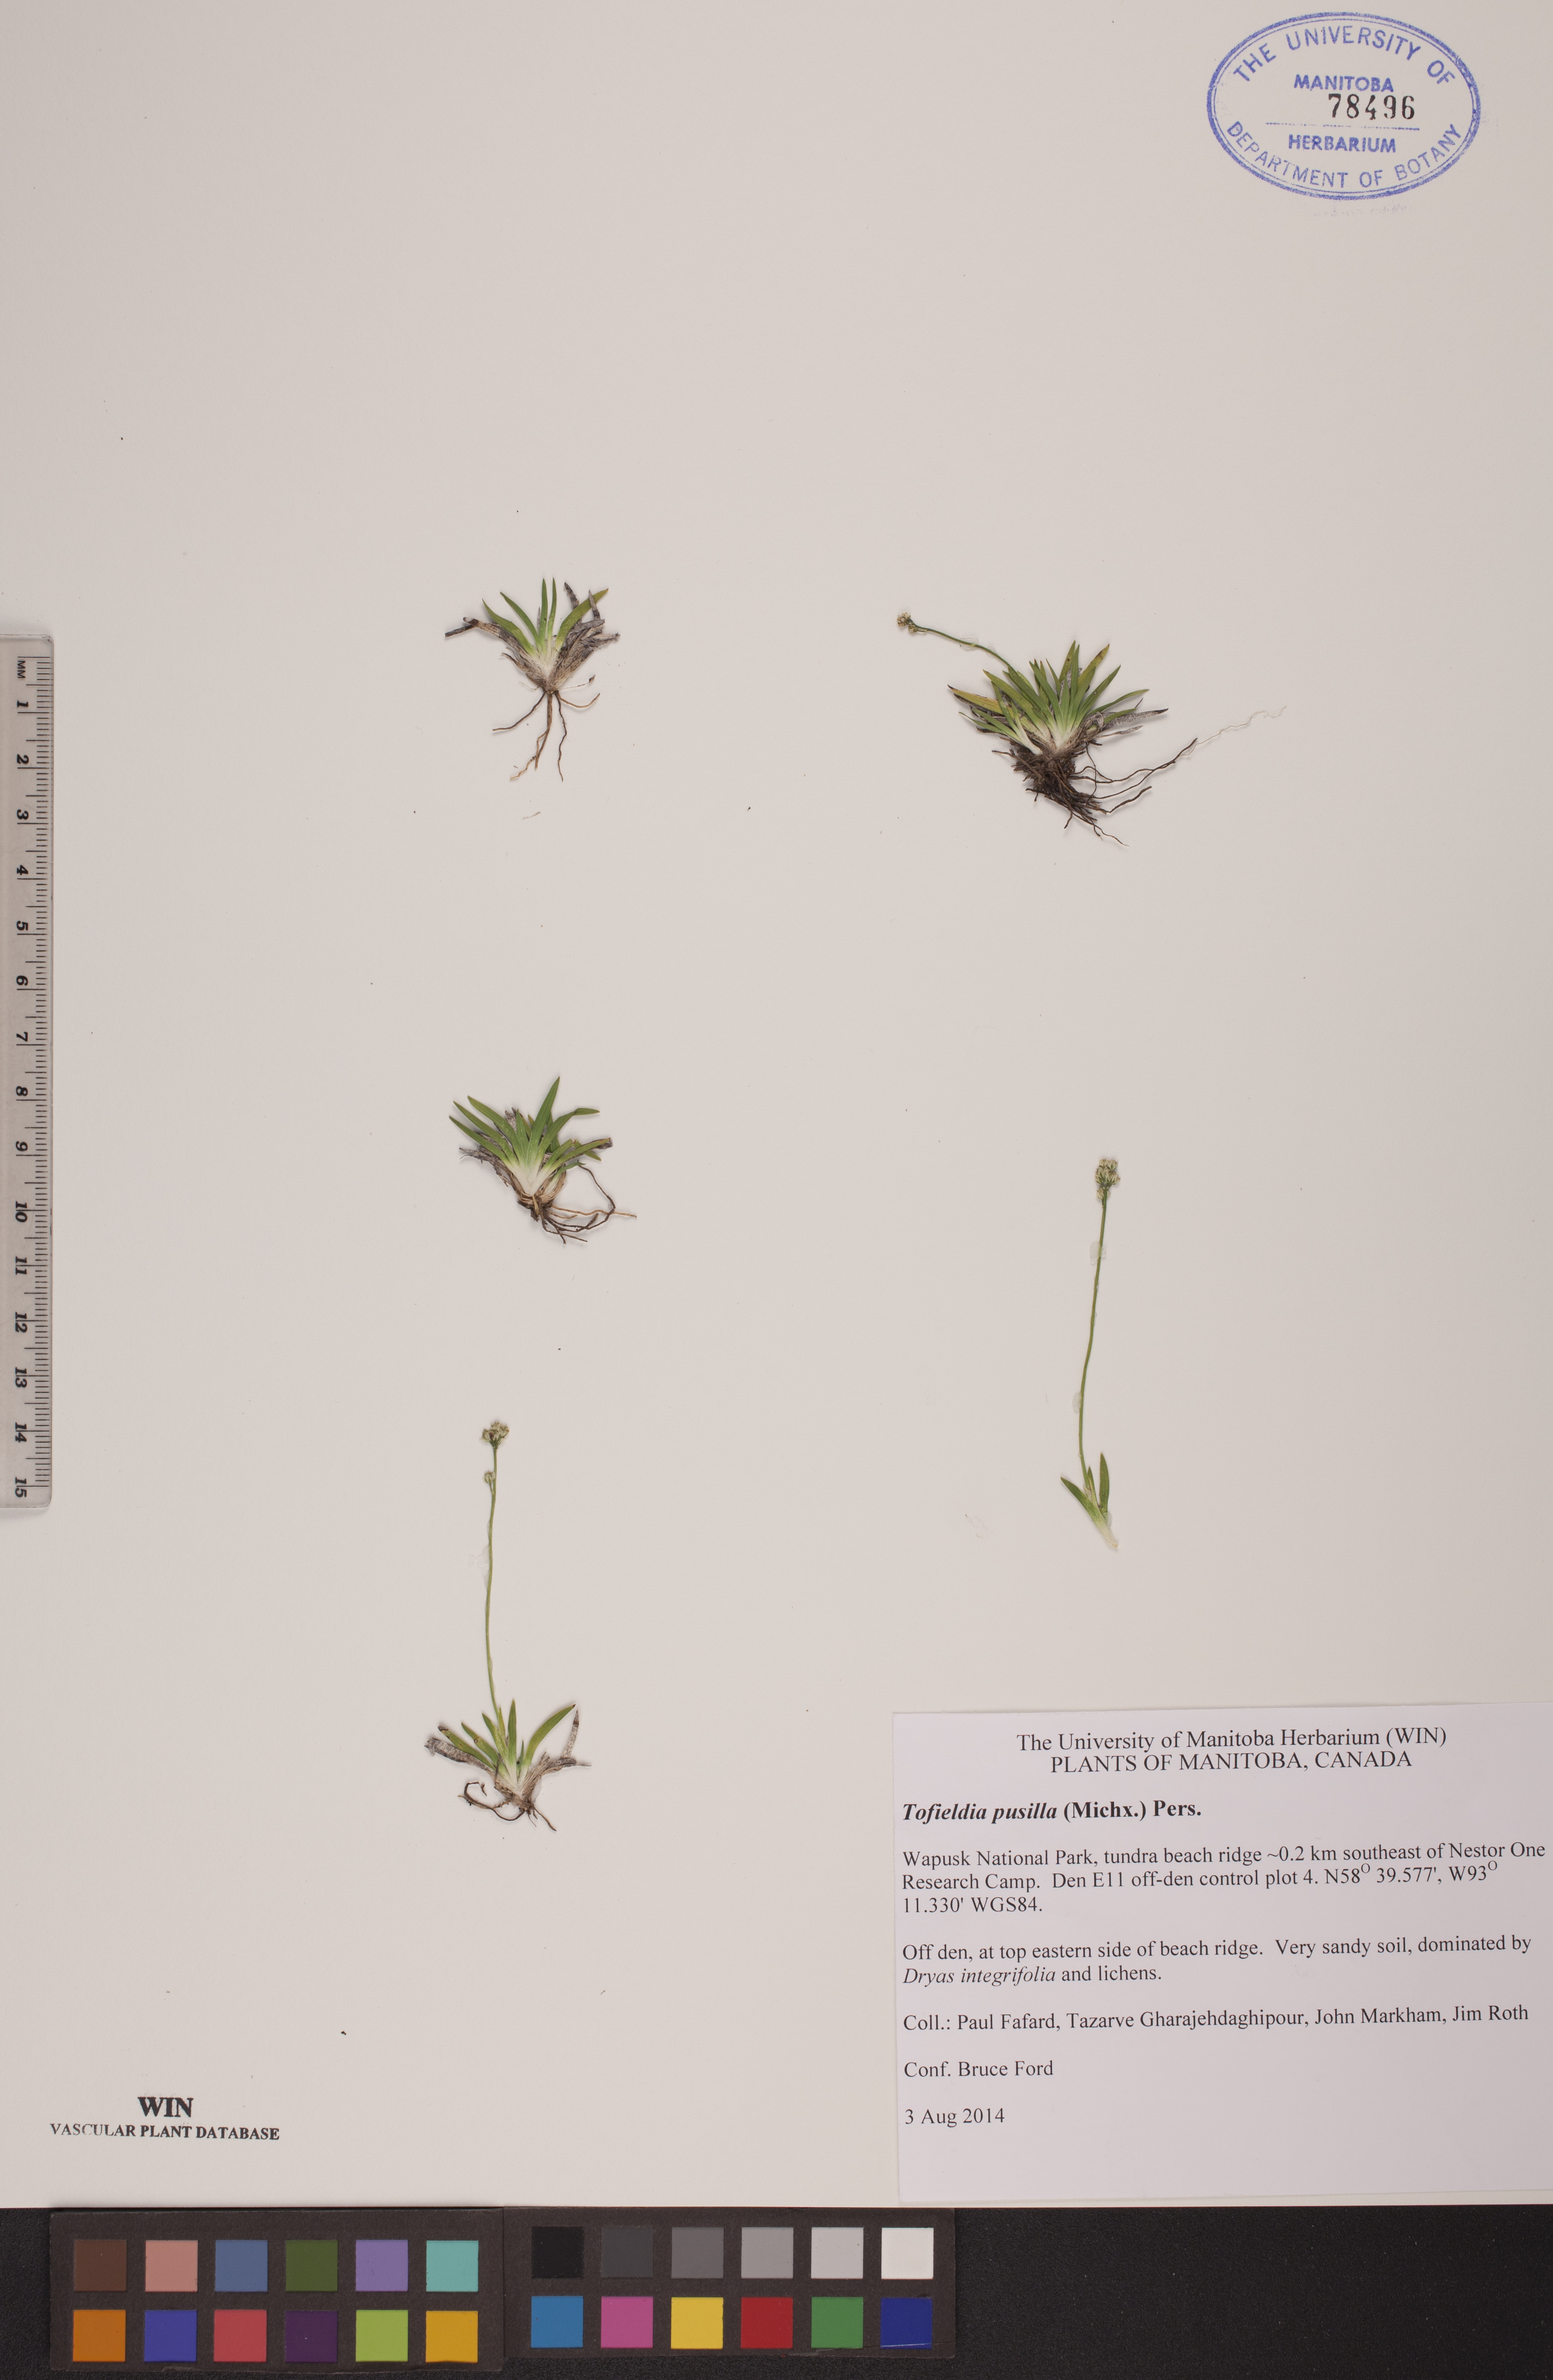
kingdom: Plantae
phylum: Tracheophyta
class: Liliopsida
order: Alismatales
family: Tofieldiaceae
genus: Tofieldia
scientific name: Tofieldia pusilla
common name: Scottish false asphodel
